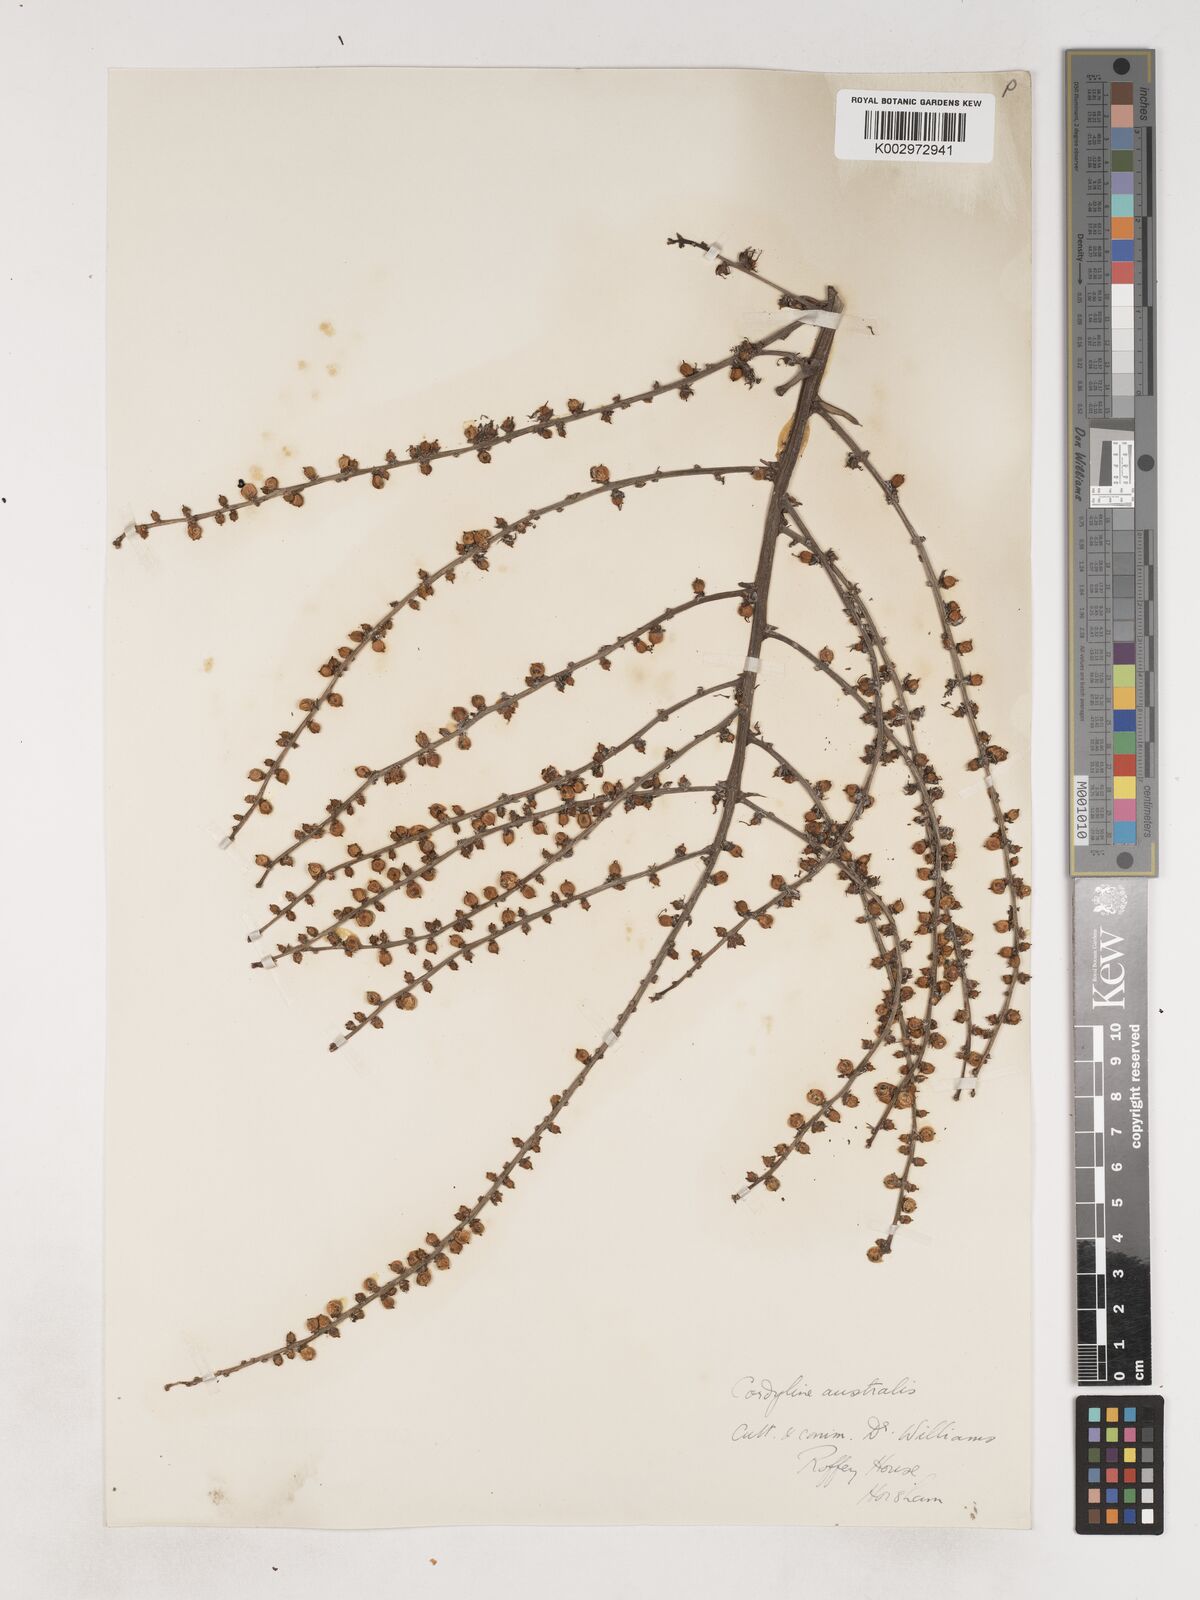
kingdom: Plantae
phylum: Tracheophyta
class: Liliopsida
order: Asparagales
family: Asparagaceae
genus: Cordyline
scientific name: Cordyline
